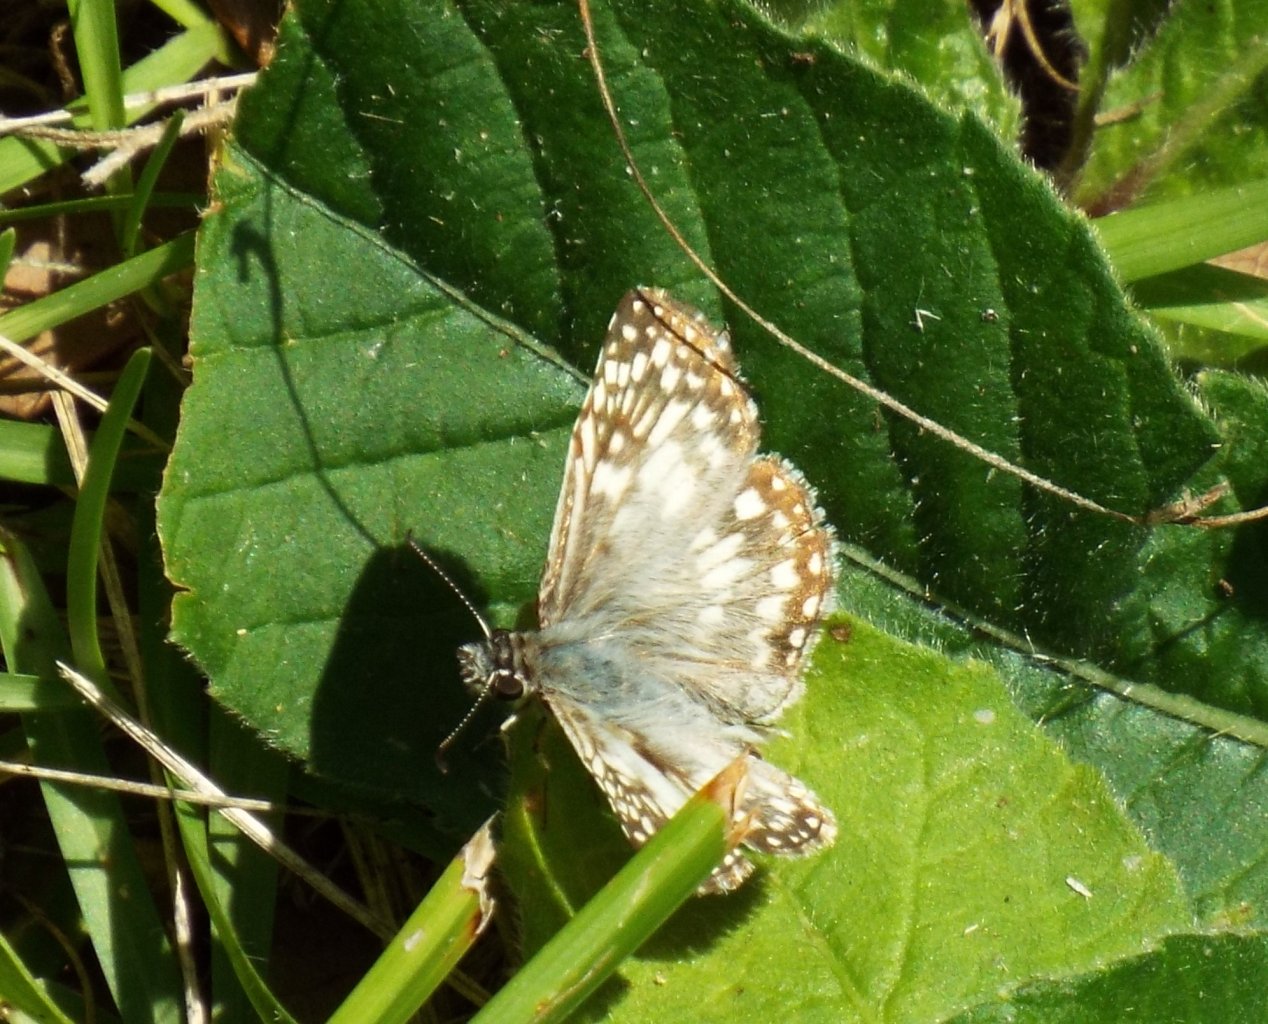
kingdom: Animalia
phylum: Arthropoda
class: Insecta
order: Lepidoptera
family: Hesperiidae
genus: Pyrgus
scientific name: Pyrgus oileus
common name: Tropical Checkered-Skipper
